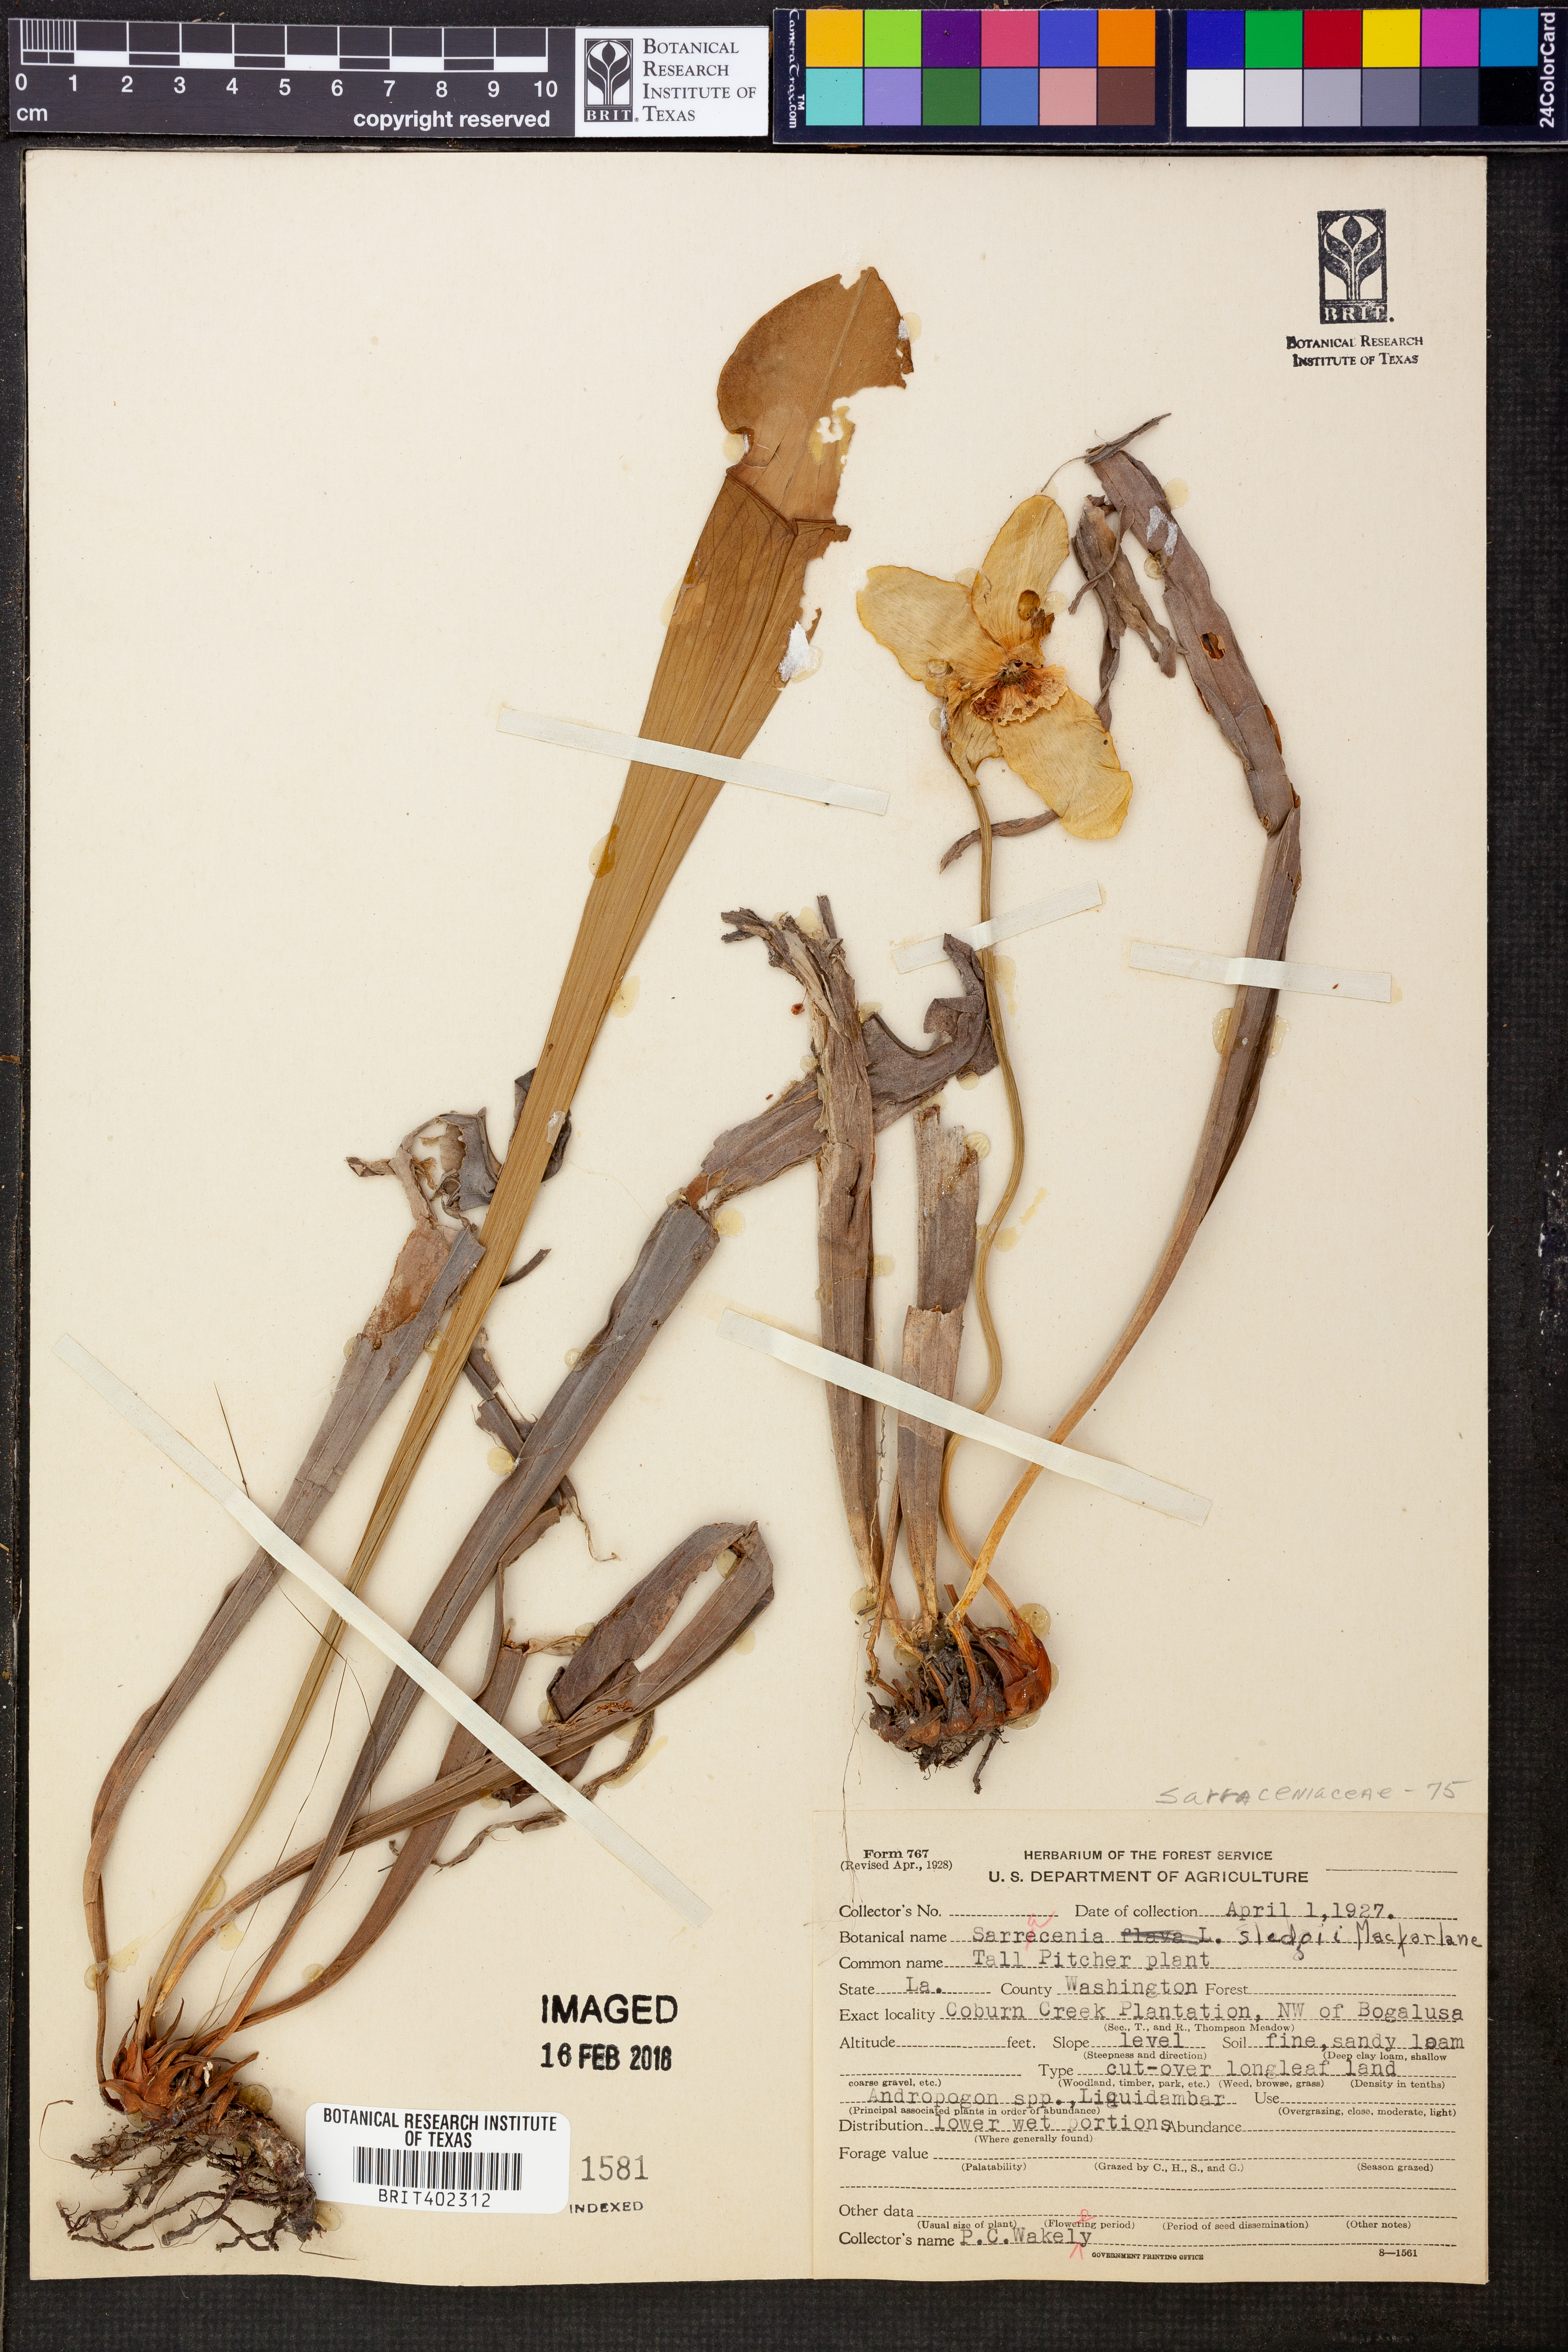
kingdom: Plantae
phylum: Tracheophyta
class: Magnoliopsida
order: Ericales
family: Sarraceniaceae
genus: Sarracenia
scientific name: Sarracenia alata
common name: Yellow trumpets
